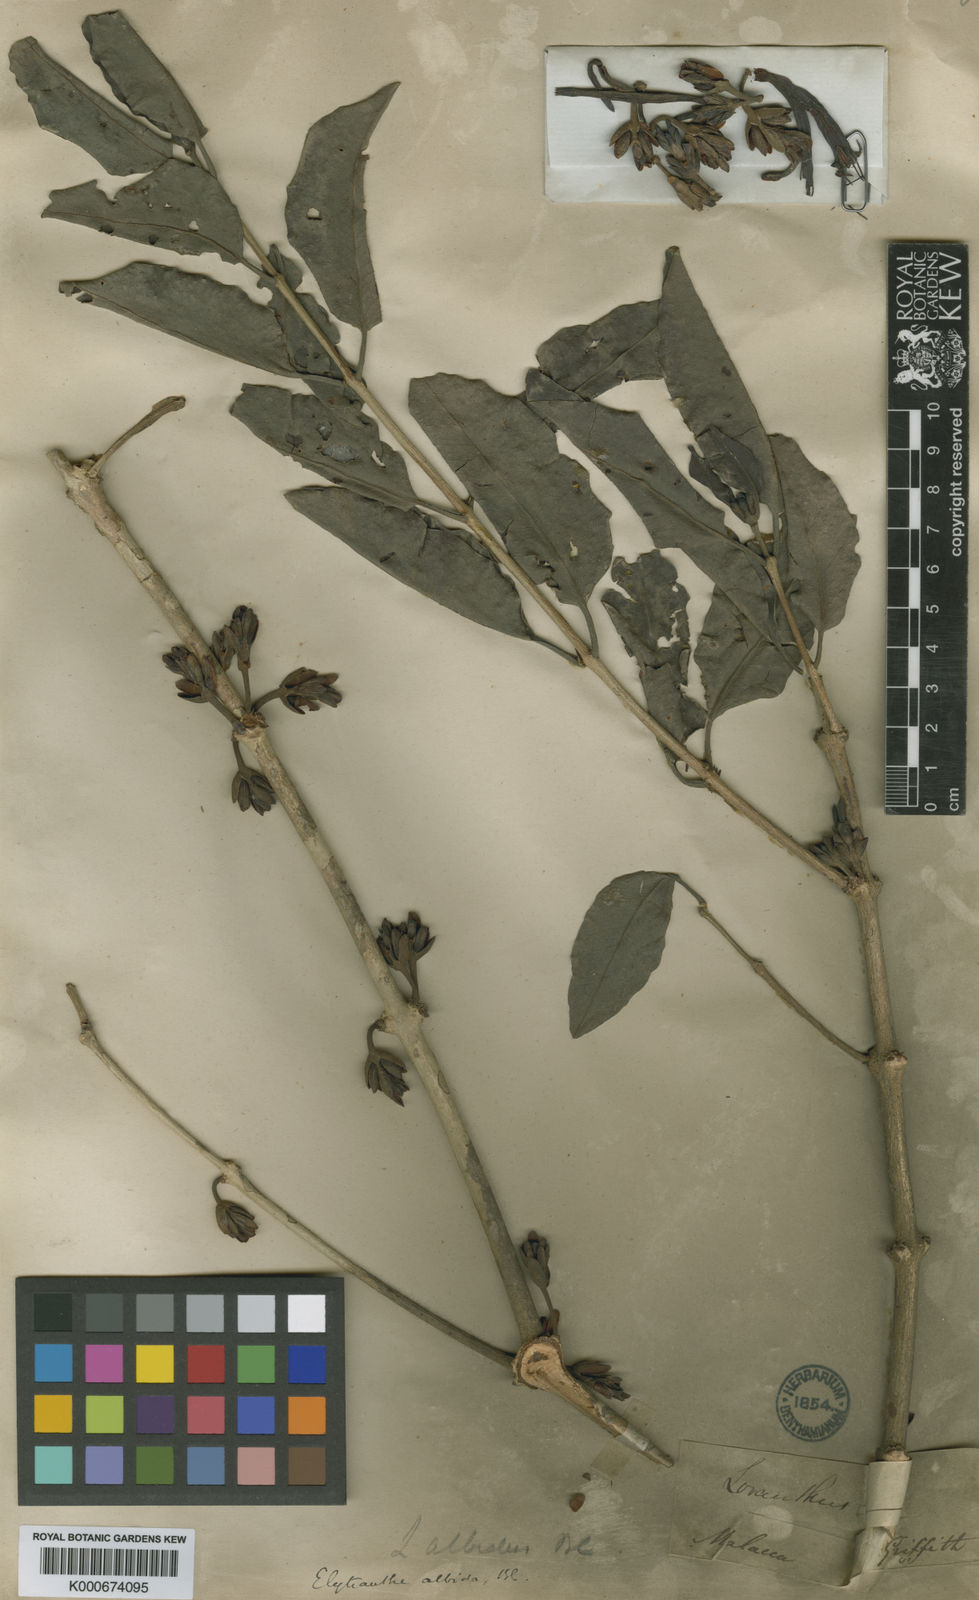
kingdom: Plantae
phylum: Tracheophyta
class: Magnoliopsida
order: Santalales
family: Loranthaceae
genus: Elytranthe
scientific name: Elytranthe albida
